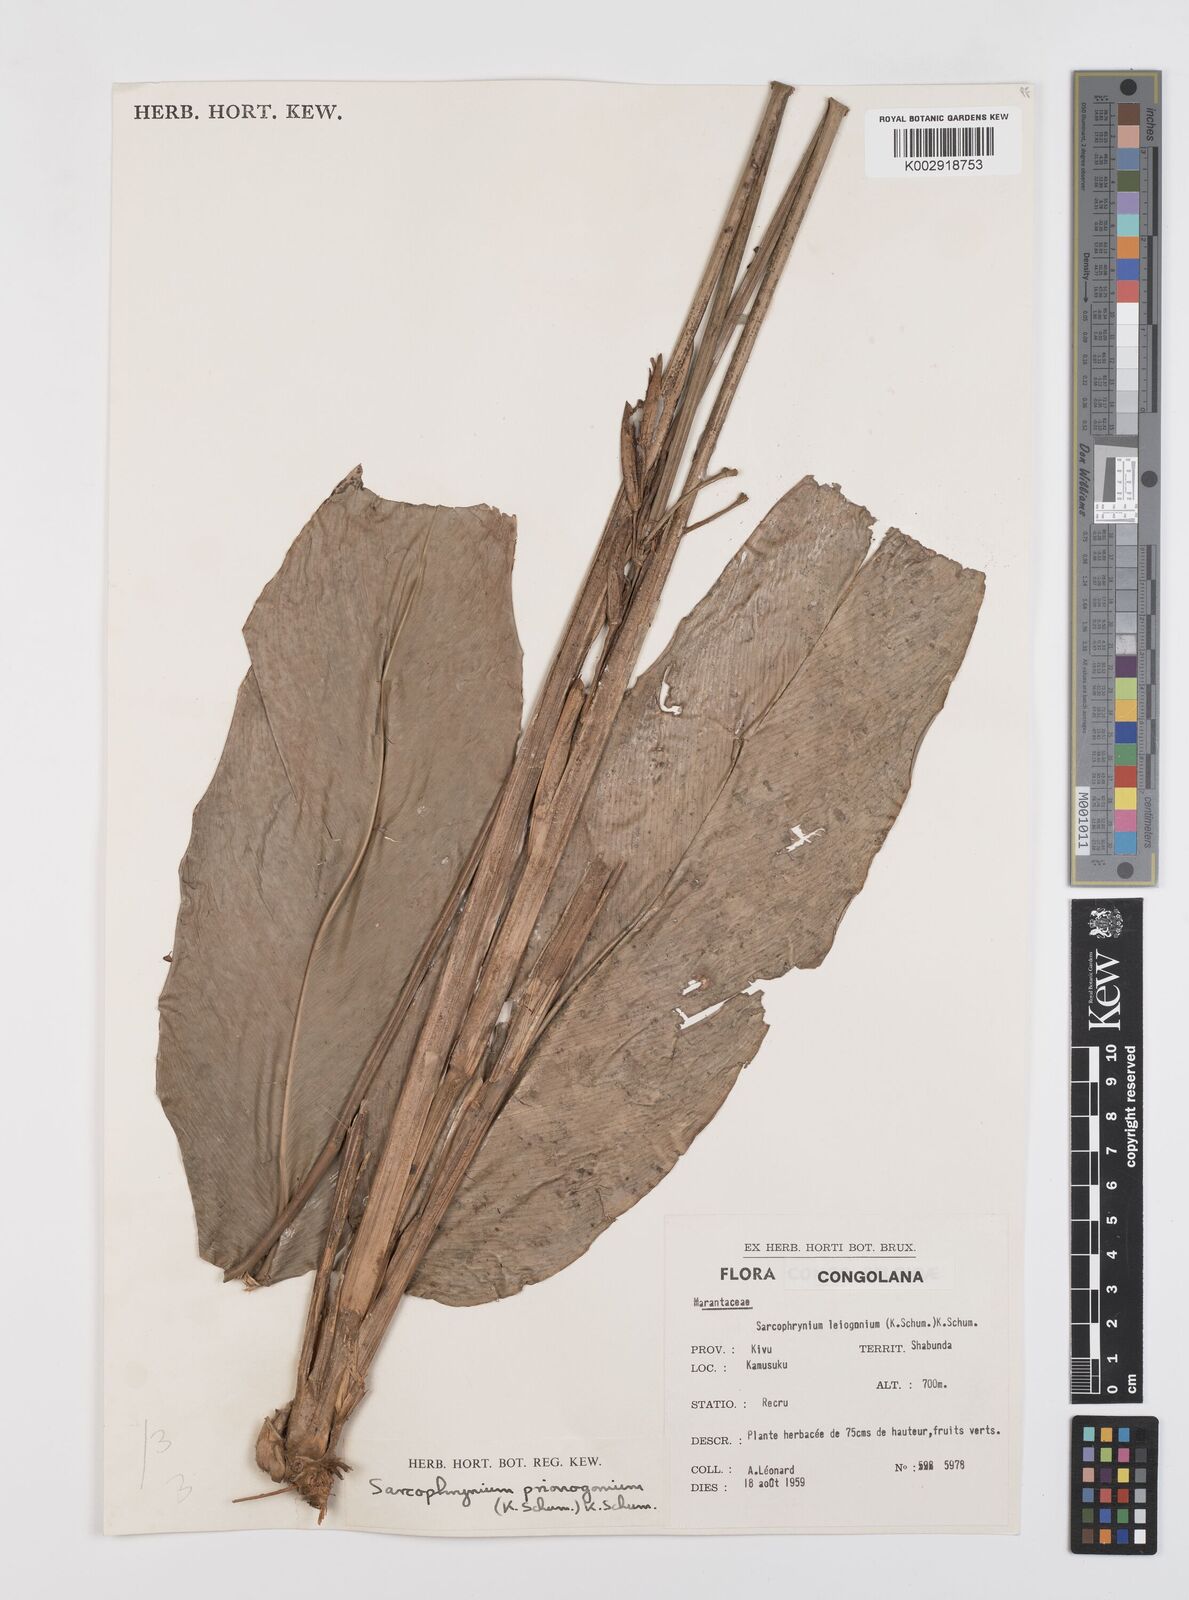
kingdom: Plantae
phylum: Tracheophyta
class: Liliopsida
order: Zingiberales
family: Marantaceae
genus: Sarcophrynium
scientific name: Sarcophrynium prionogonium
